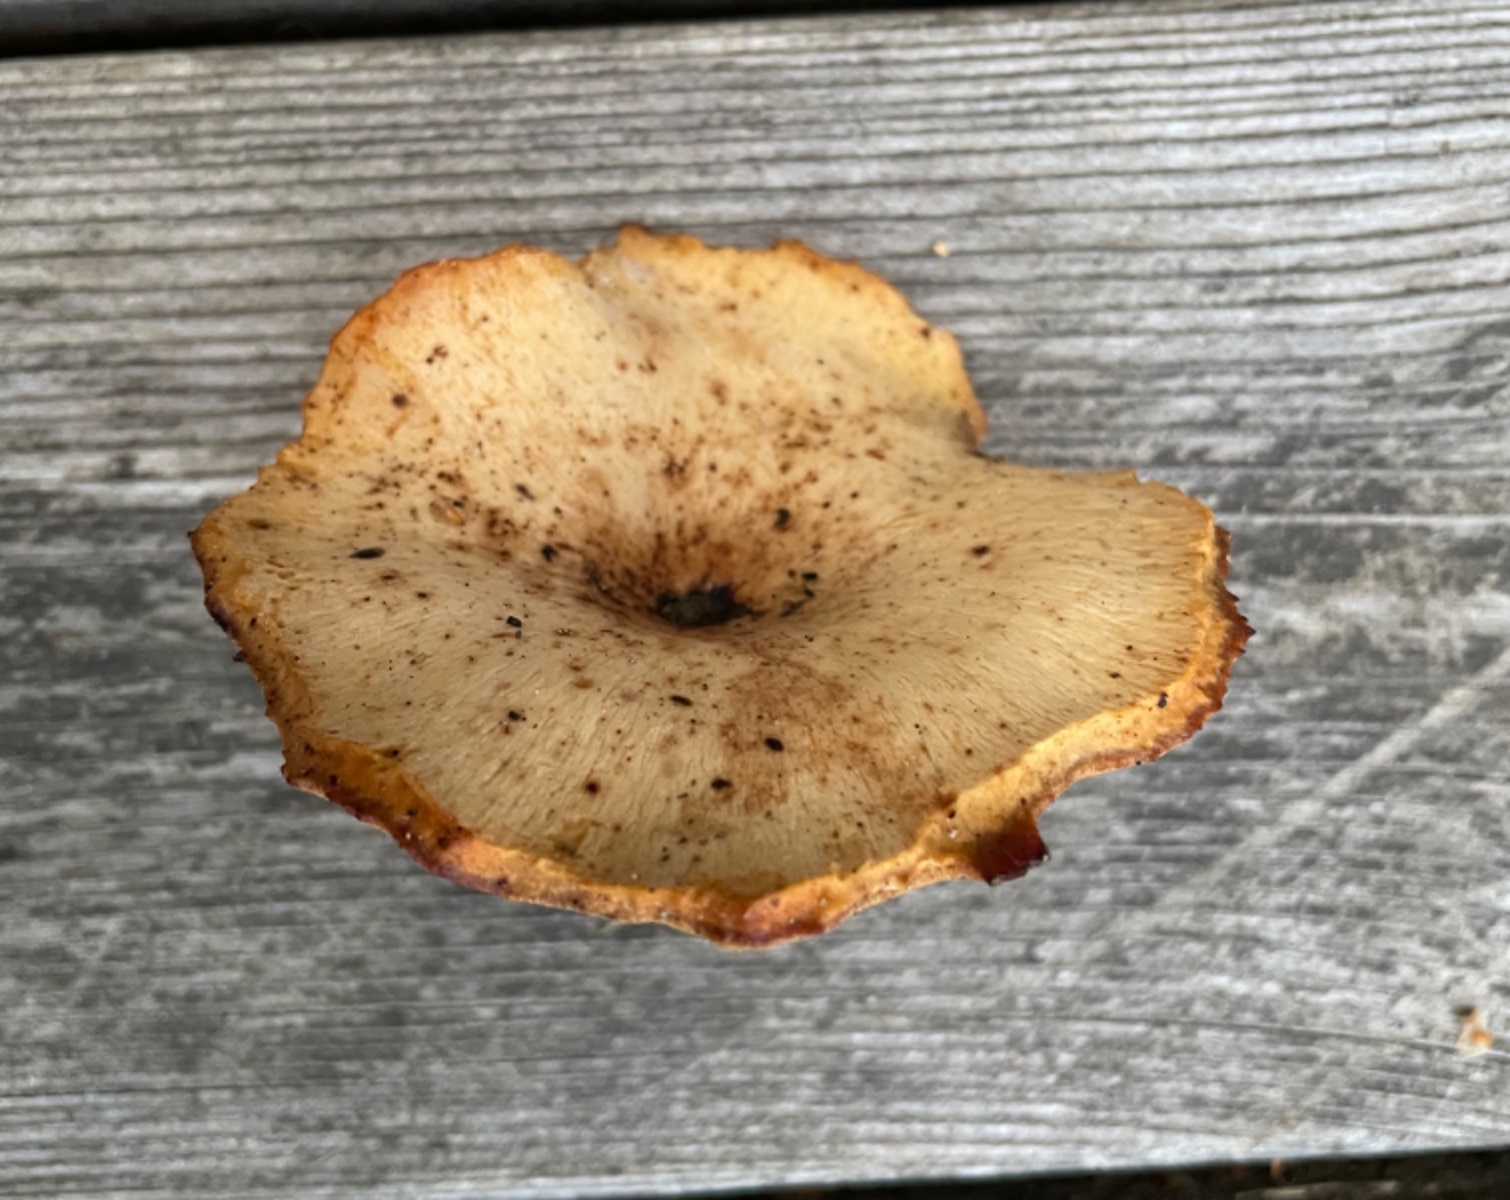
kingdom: Fungi
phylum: Basidiomycota
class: Agaricomycetes
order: Polyporales
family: Polyporaceae
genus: Cerioporus
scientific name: Cerioporus varius
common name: foranderlig stilkporesvamp
